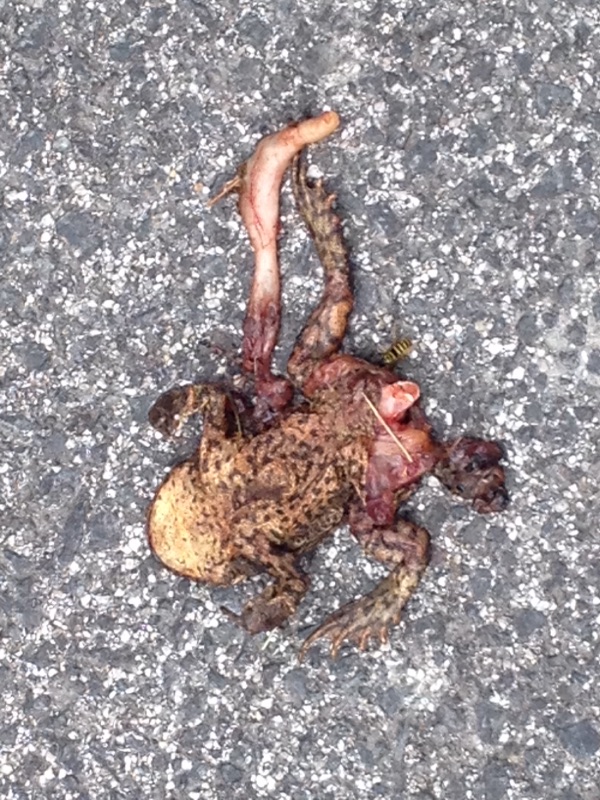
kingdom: Animalia
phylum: Chordata
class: Amphibia
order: Anura
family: Bufonidae
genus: Bufo
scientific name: Bufo bufo
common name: Common toad
